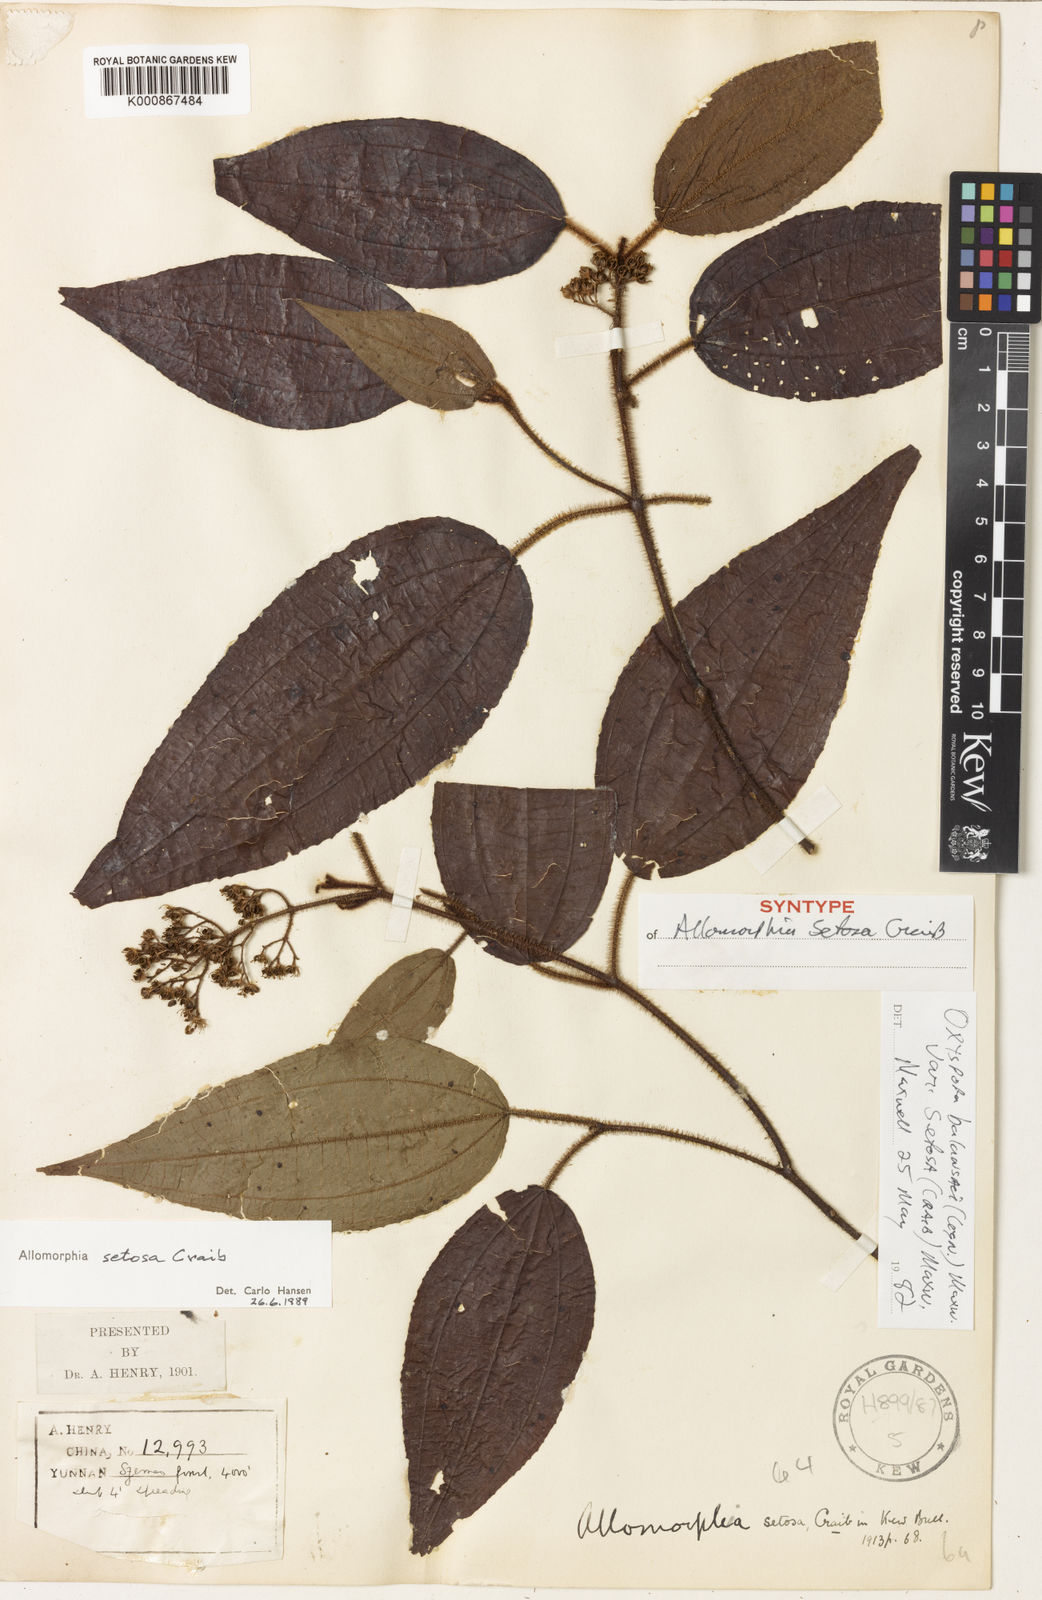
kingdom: Plantae
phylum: Tracheophyta
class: Magnoliopsida
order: Myrtales
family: Melastomataceae
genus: Allomorphia
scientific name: Allomorphia howellii
